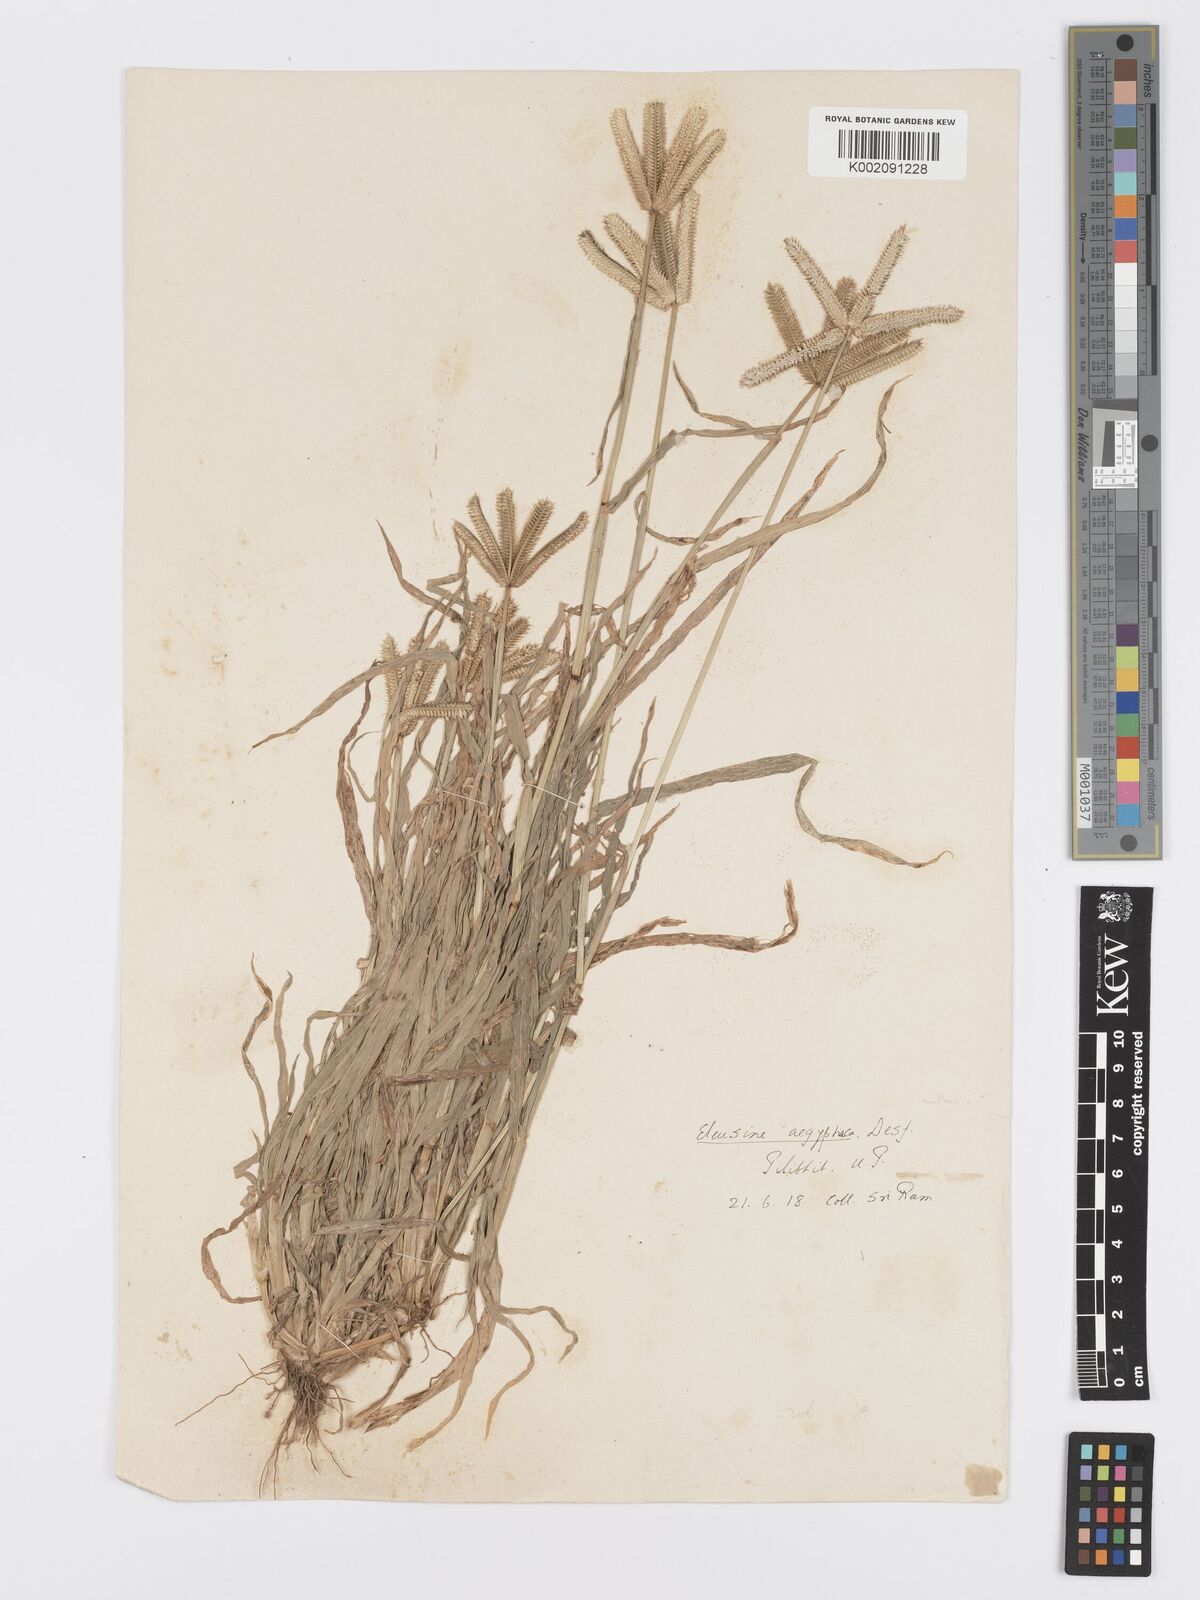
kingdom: Plantae
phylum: Tracheophyta
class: Liliopsida
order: Poales
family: Poaceae
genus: Dactyloctenium
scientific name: Dactyloctenium aegyptium
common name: Egyptian grass
